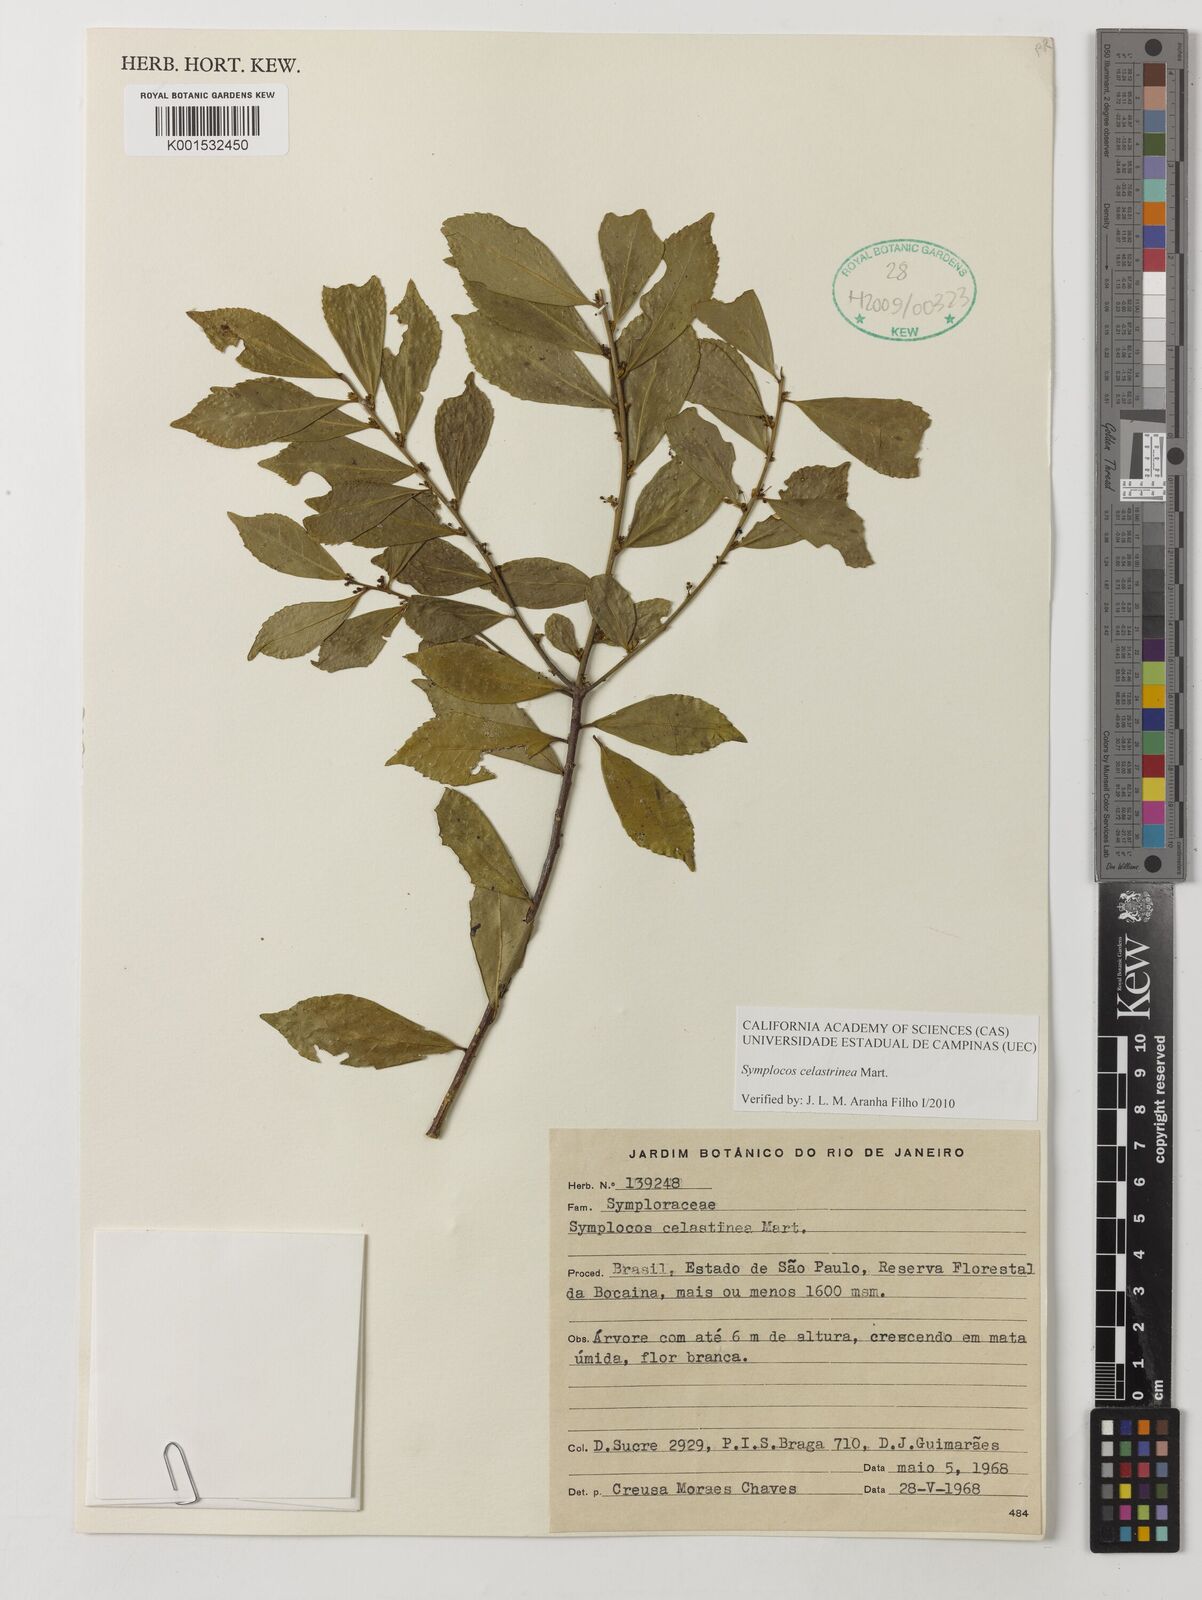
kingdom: Plantae
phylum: Tracheophyta
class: Magnoliopsida
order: Ericales
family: Symplocaceae
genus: Symplocos
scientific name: Symplocos celastrinea
